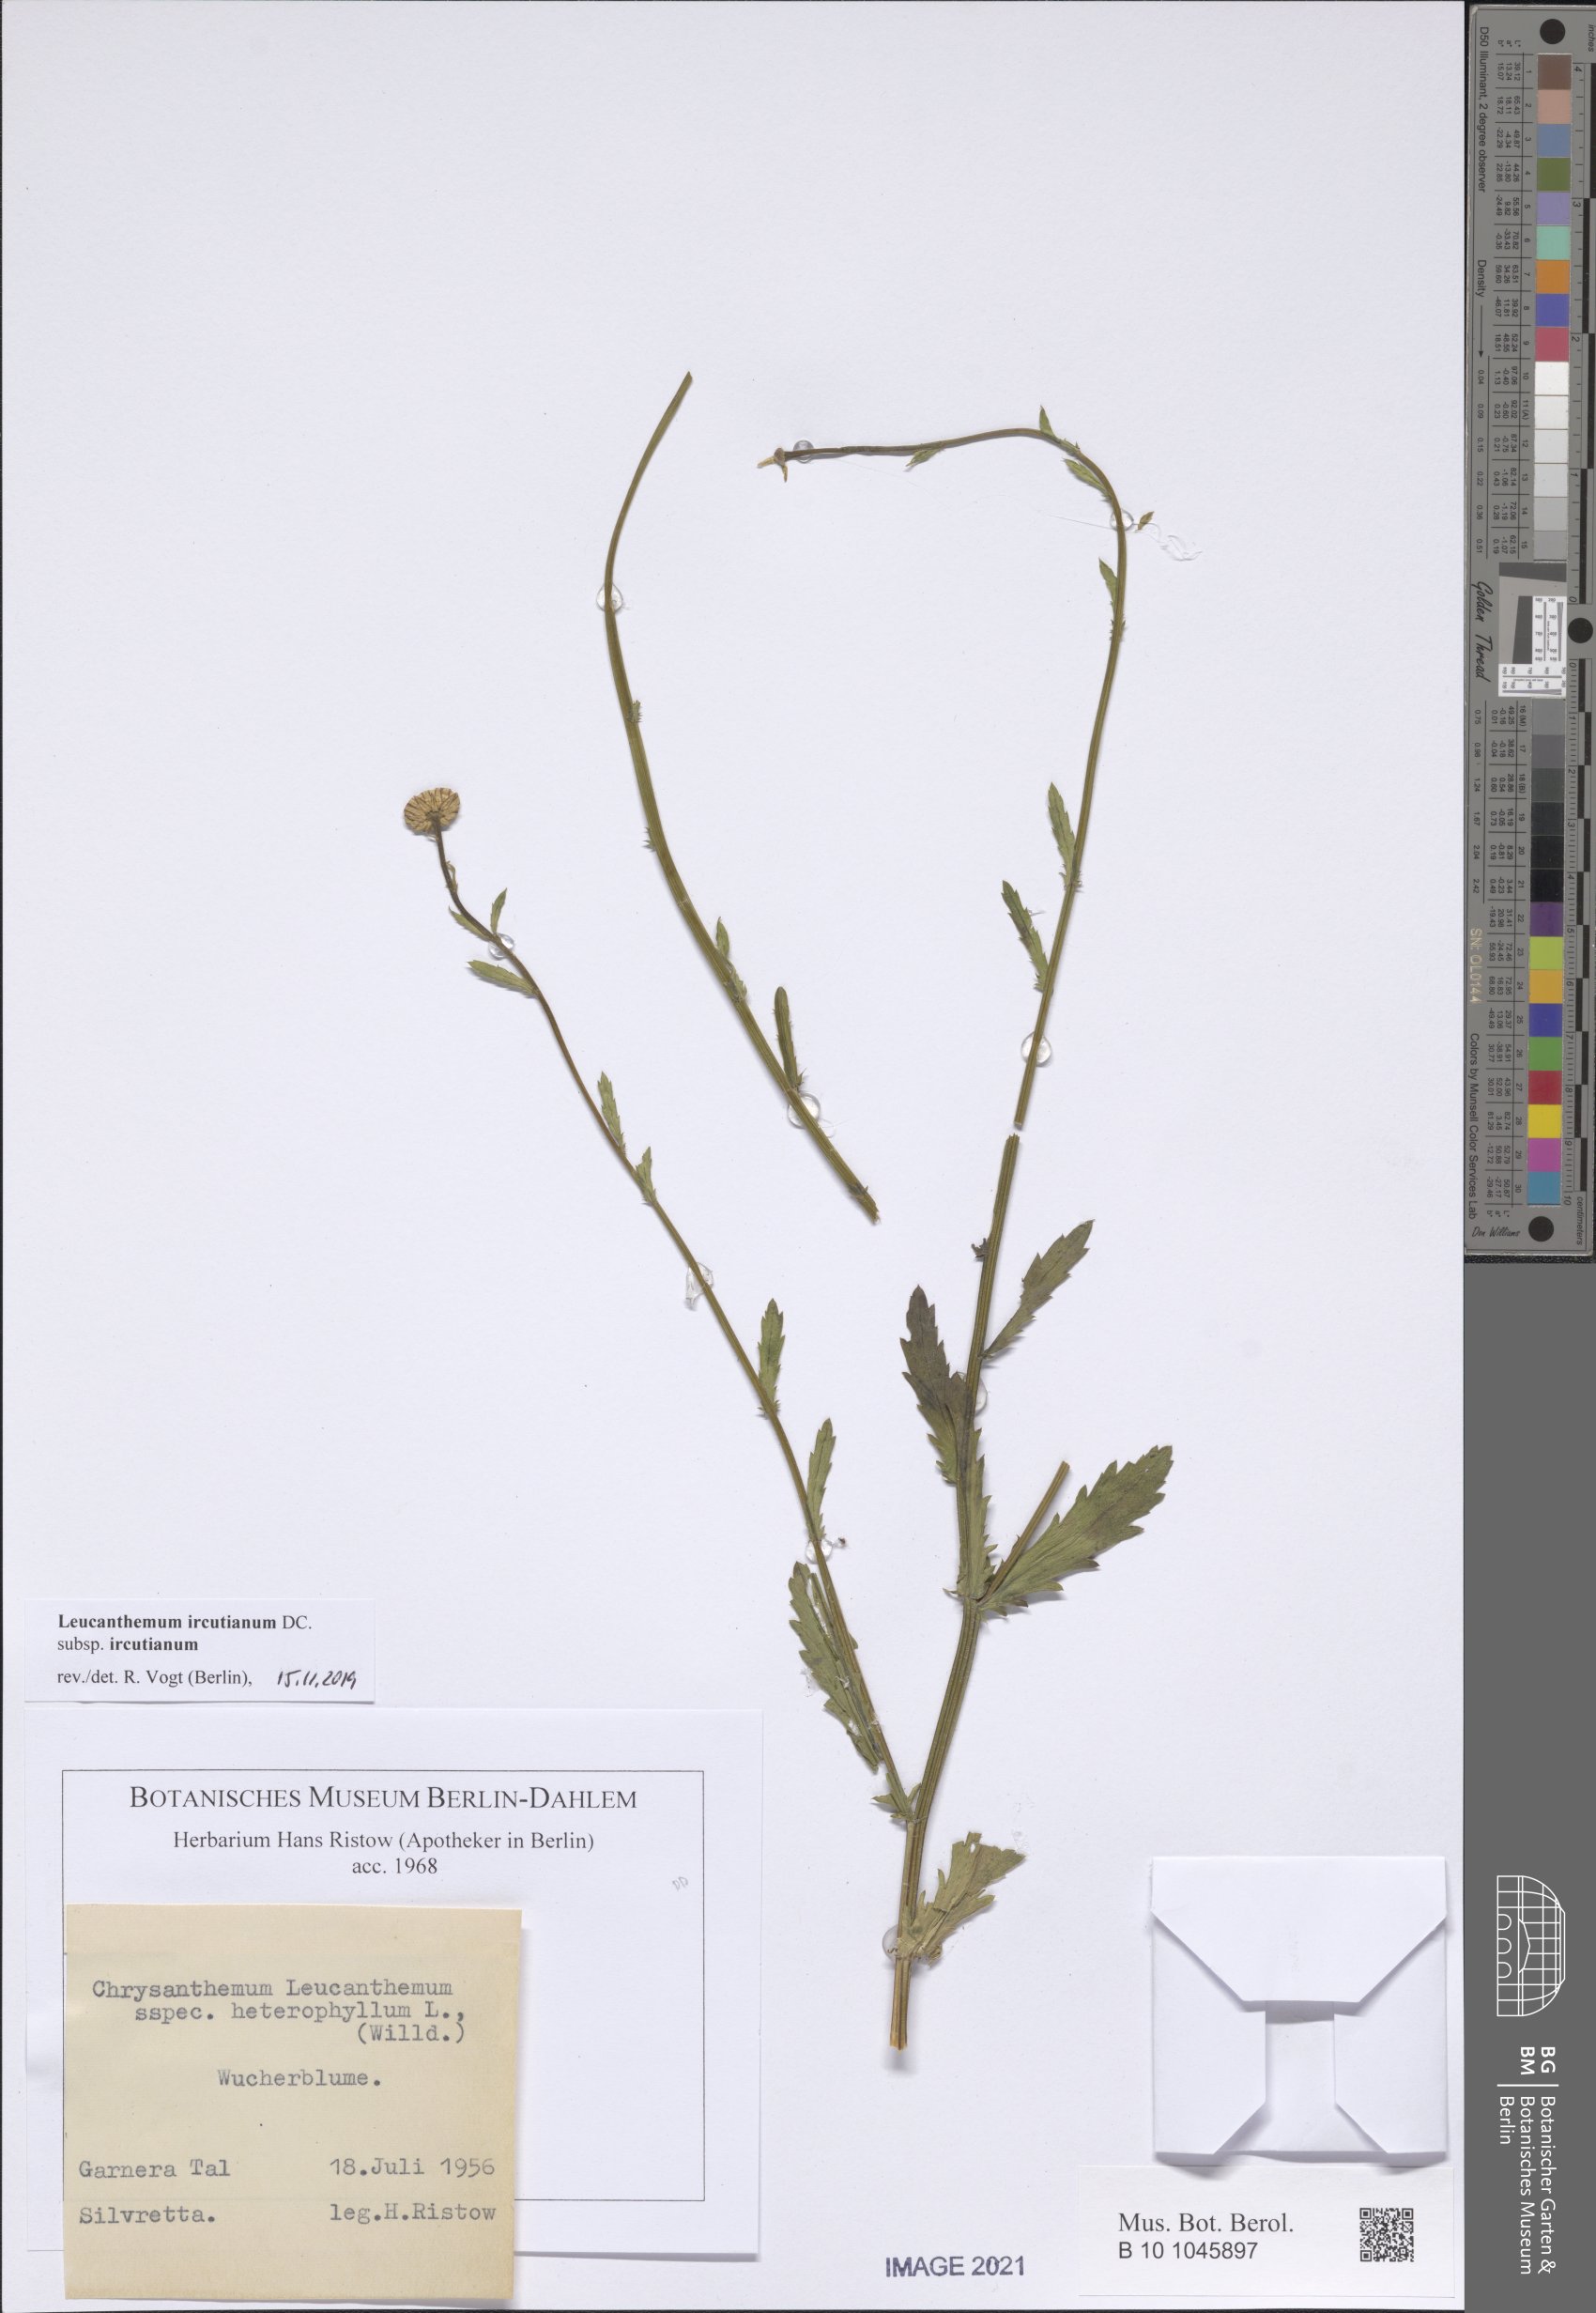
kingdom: Plantae
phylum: Tracheophyta
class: Magnoliopsida
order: Asterales
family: Asteraceae
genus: Leucanthemum
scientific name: Leucanthemum ircutianum
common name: Daisy
